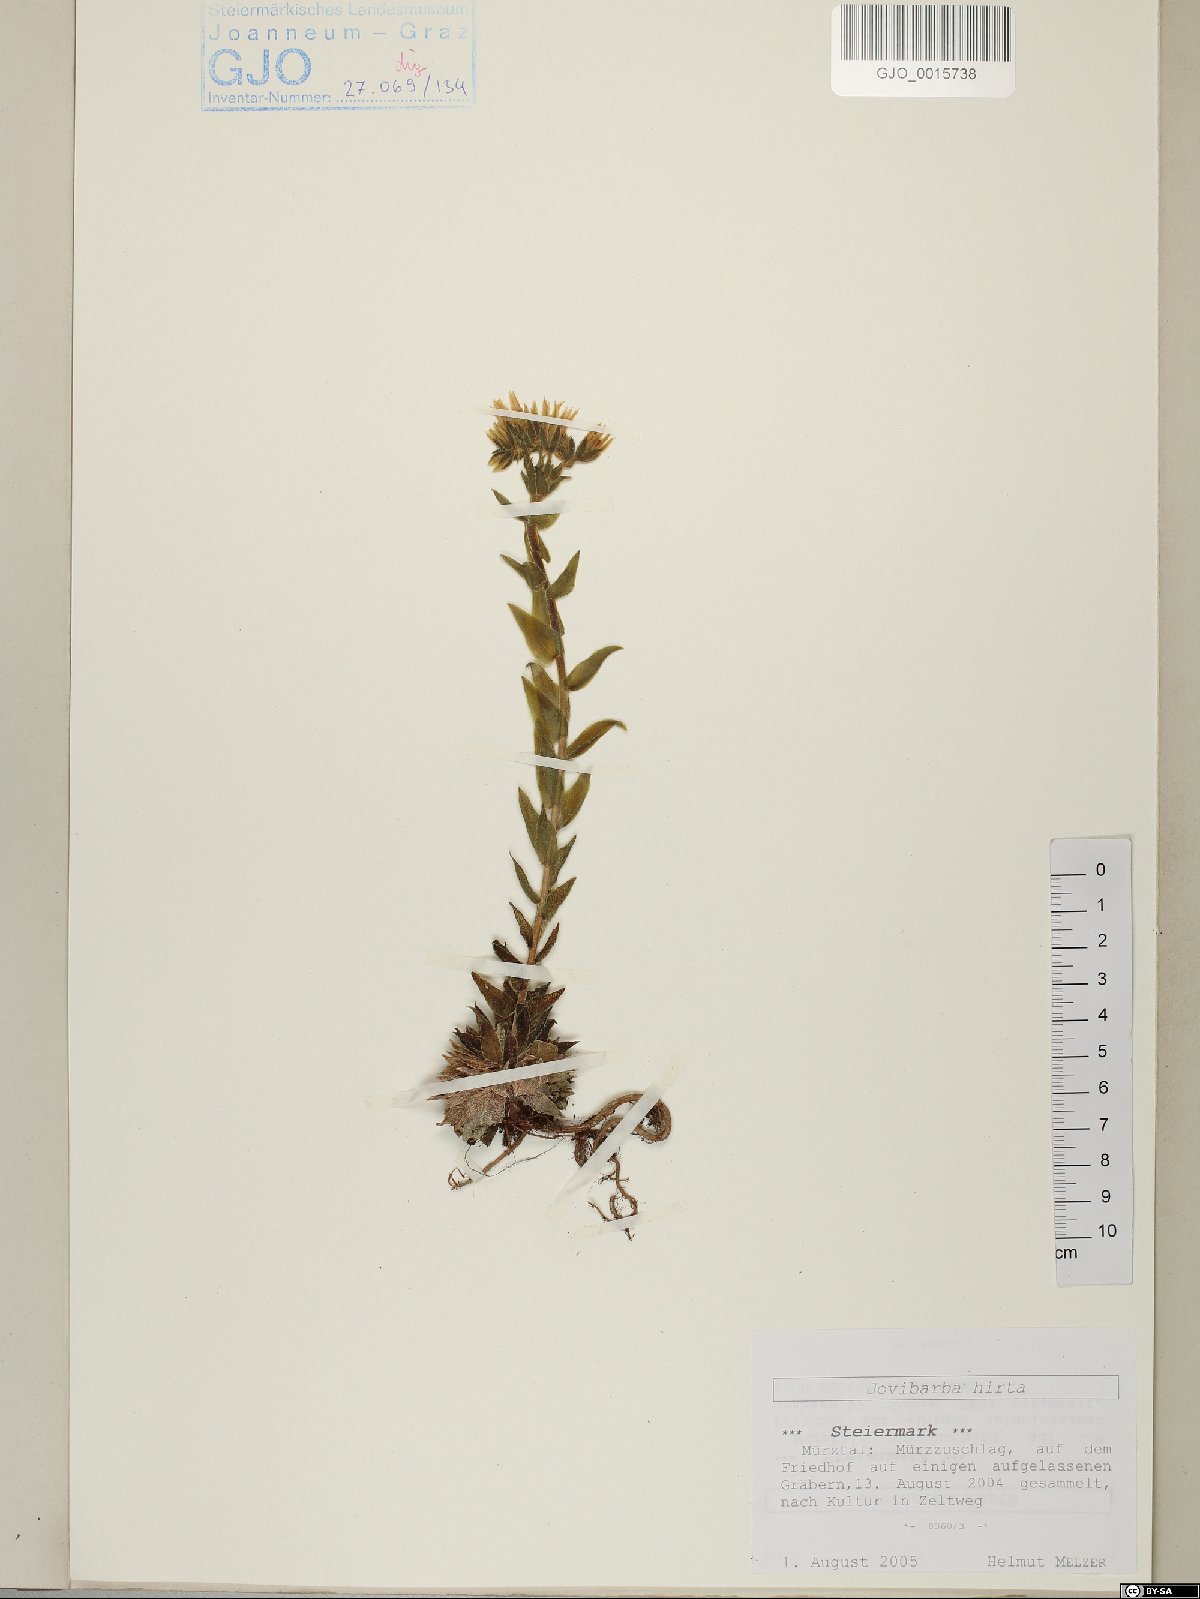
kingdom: Plantae
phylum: Tracheophyta
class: Magnoliopsida
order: Saxifragales
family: Crassulaceae
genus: Sempervivum
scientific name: Sempervivum globiferum
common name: Rolling hen-and-chicks
